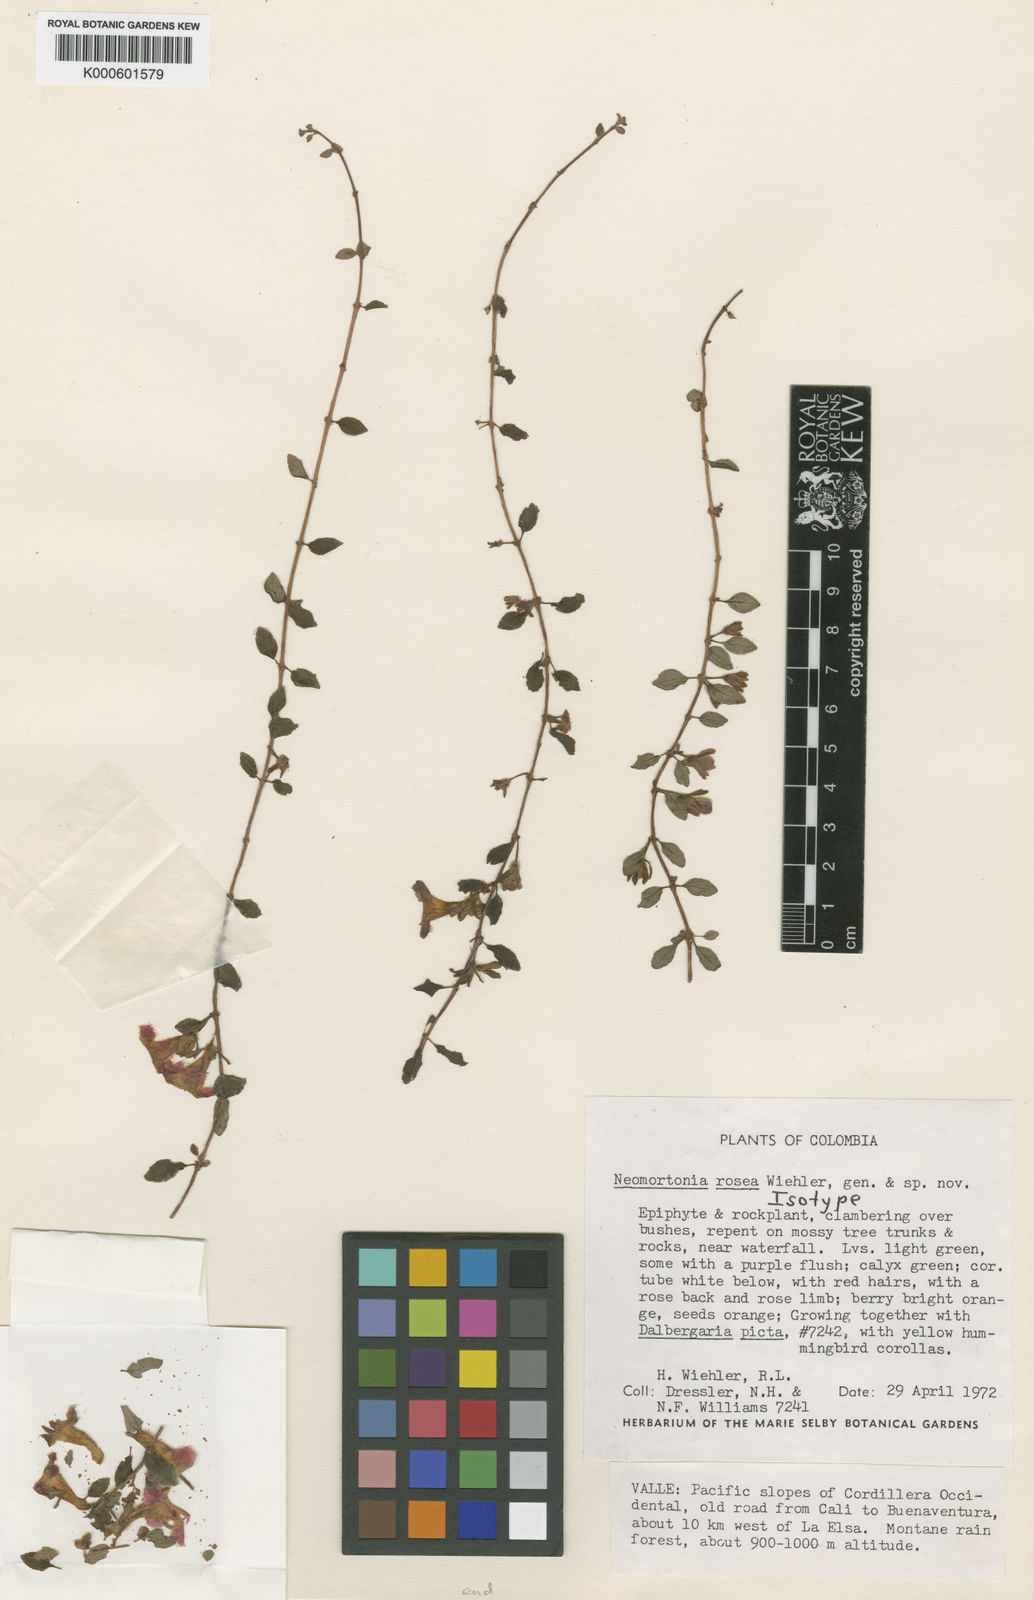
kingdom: Plantae
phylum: Tracheophyta
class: Magnoliopsida
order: Lamiales
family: Gesneriaceae
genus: Neomortonia
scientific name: Neomortonia rosea
